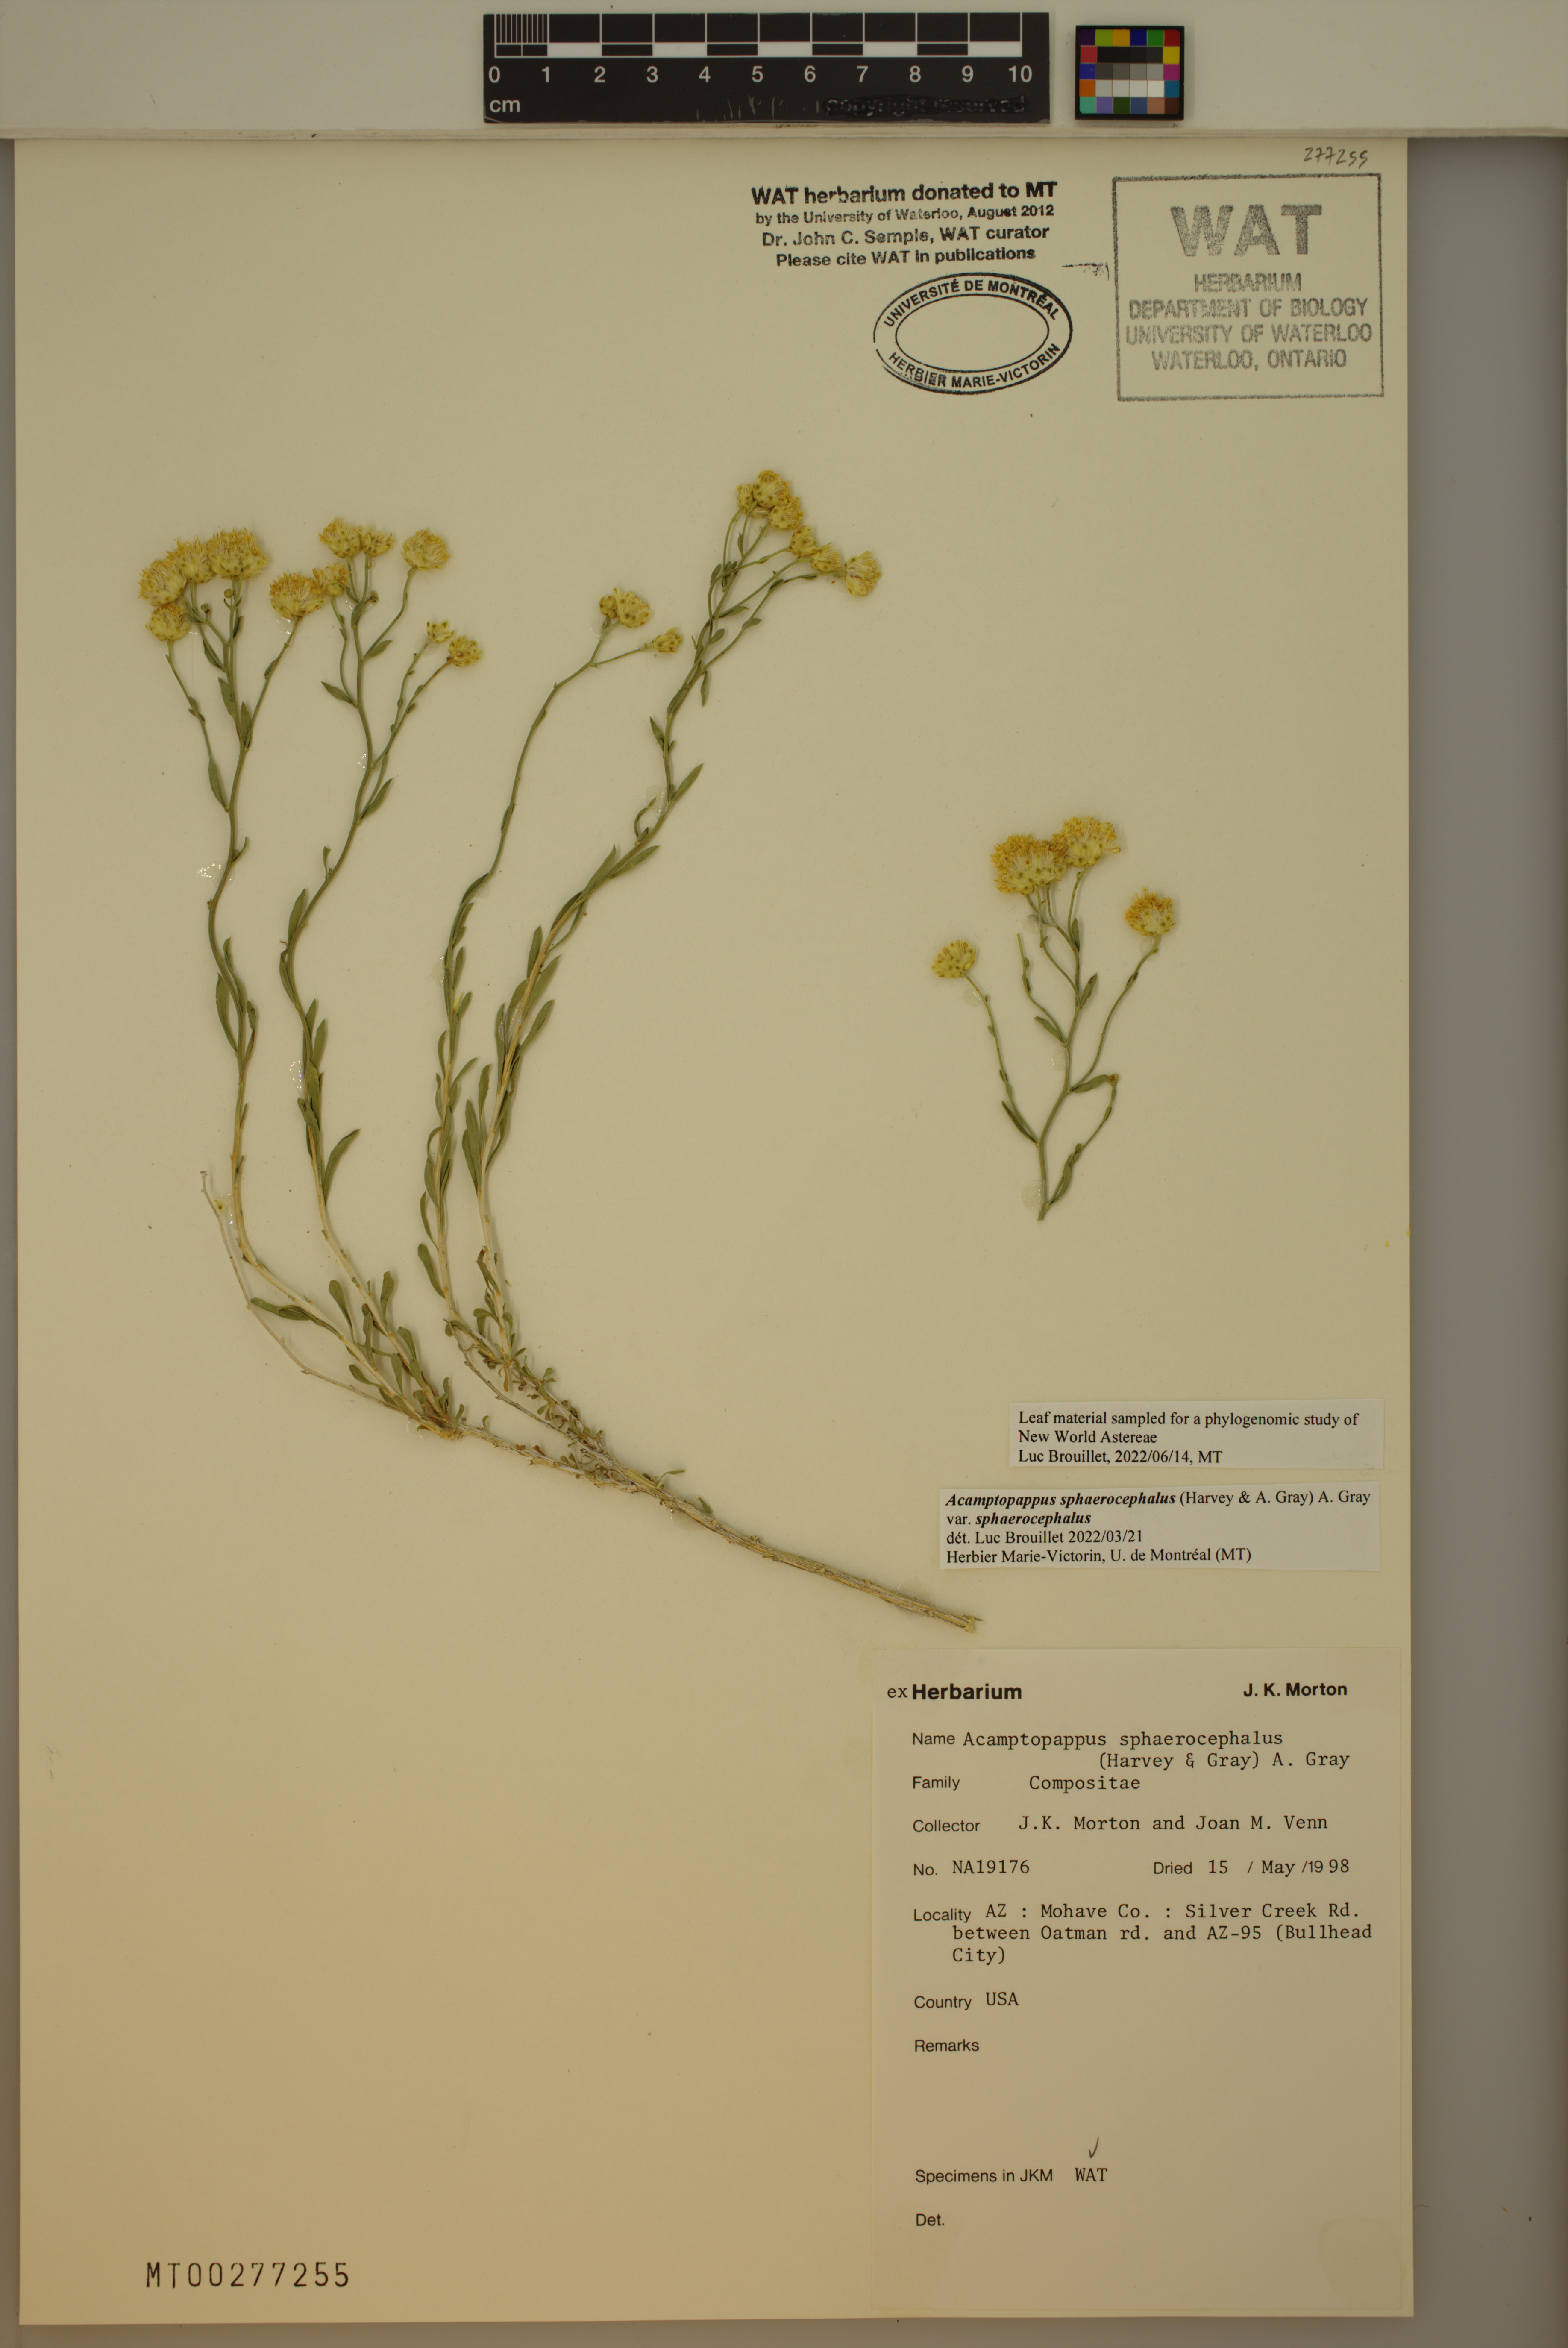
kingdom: Plantae
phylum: Tracheophyta
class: Magnoliopsida
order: Asterales
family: Asteraceae
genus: Acamptopappus
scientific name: Acamptopappus sphaerocephalus
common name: Goldenhead
